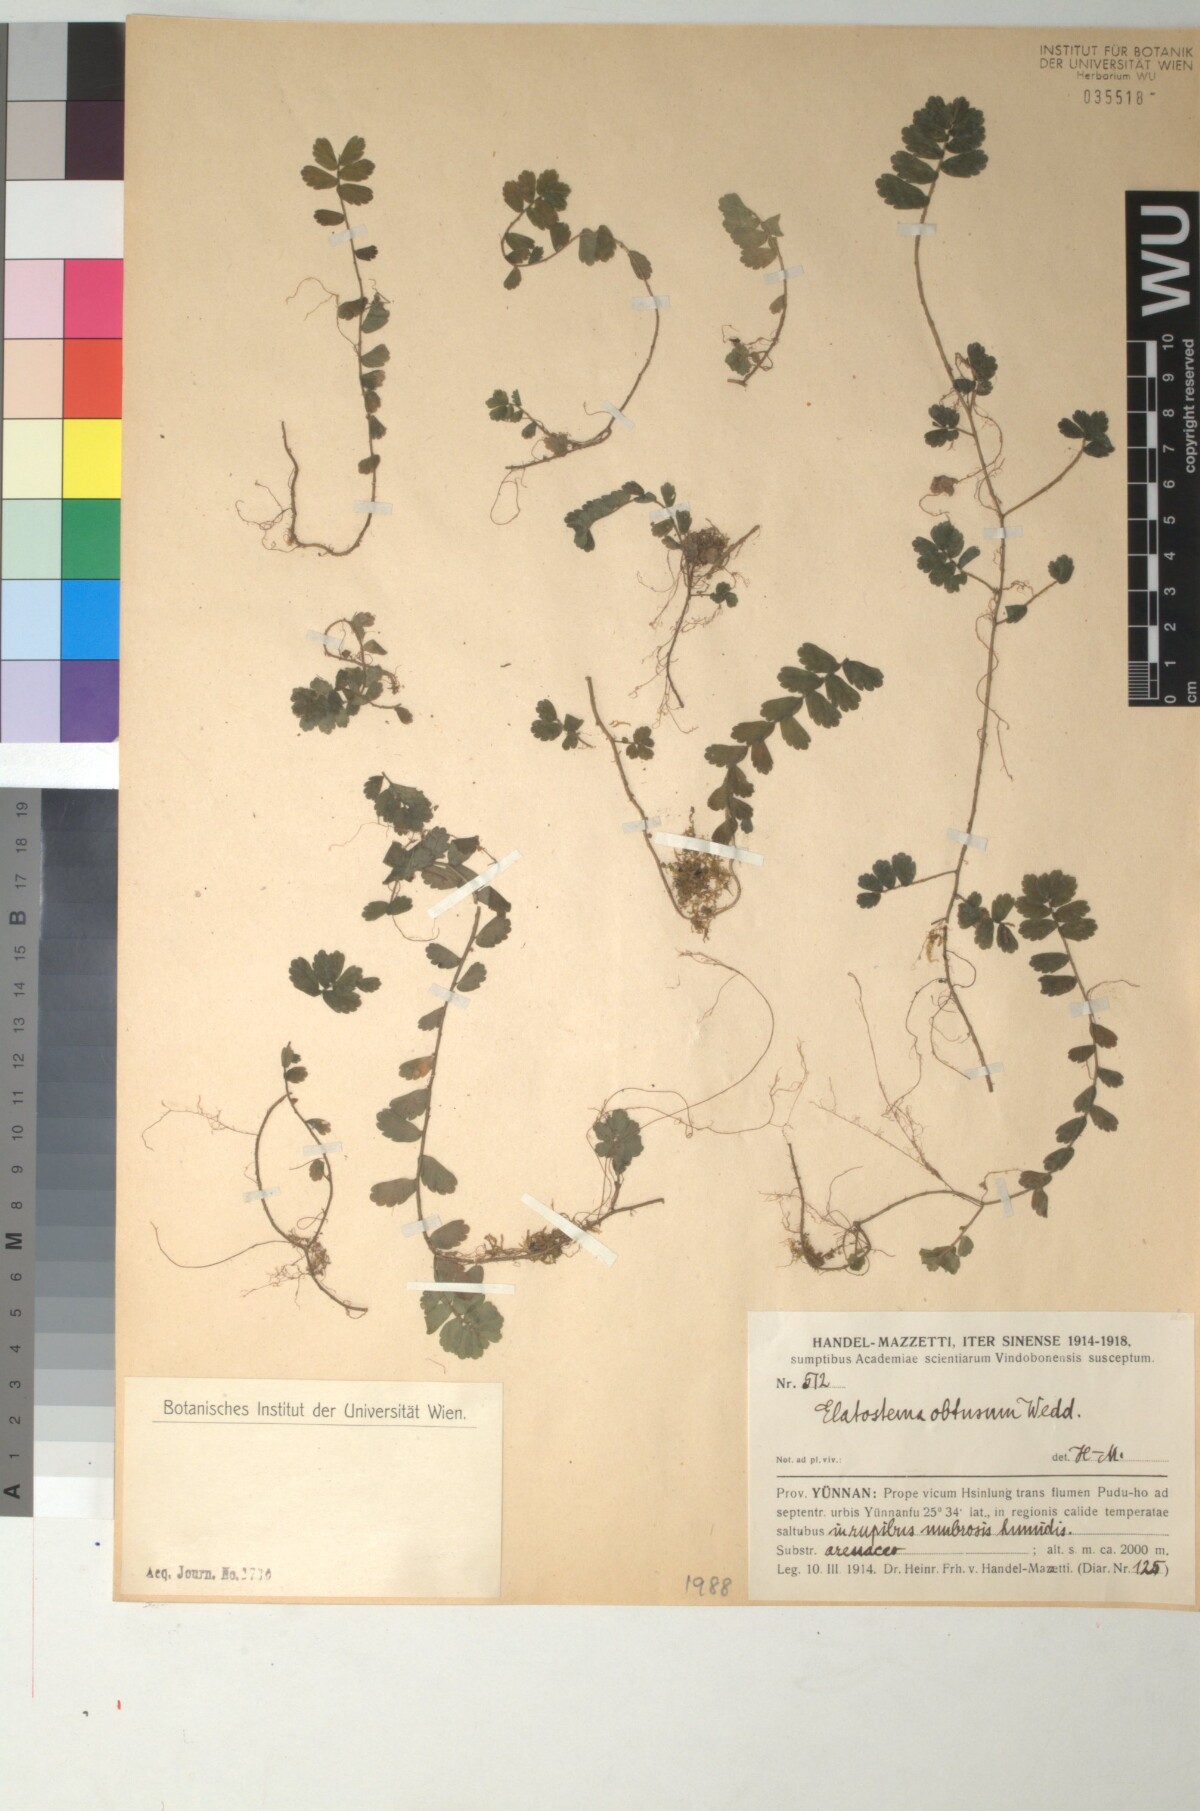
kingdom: Plantae
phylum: Tracheophyta
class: Magnoliopsida
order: Rosales
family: Urticaceae
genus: Elatostema
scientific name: Elatostema obtusum
